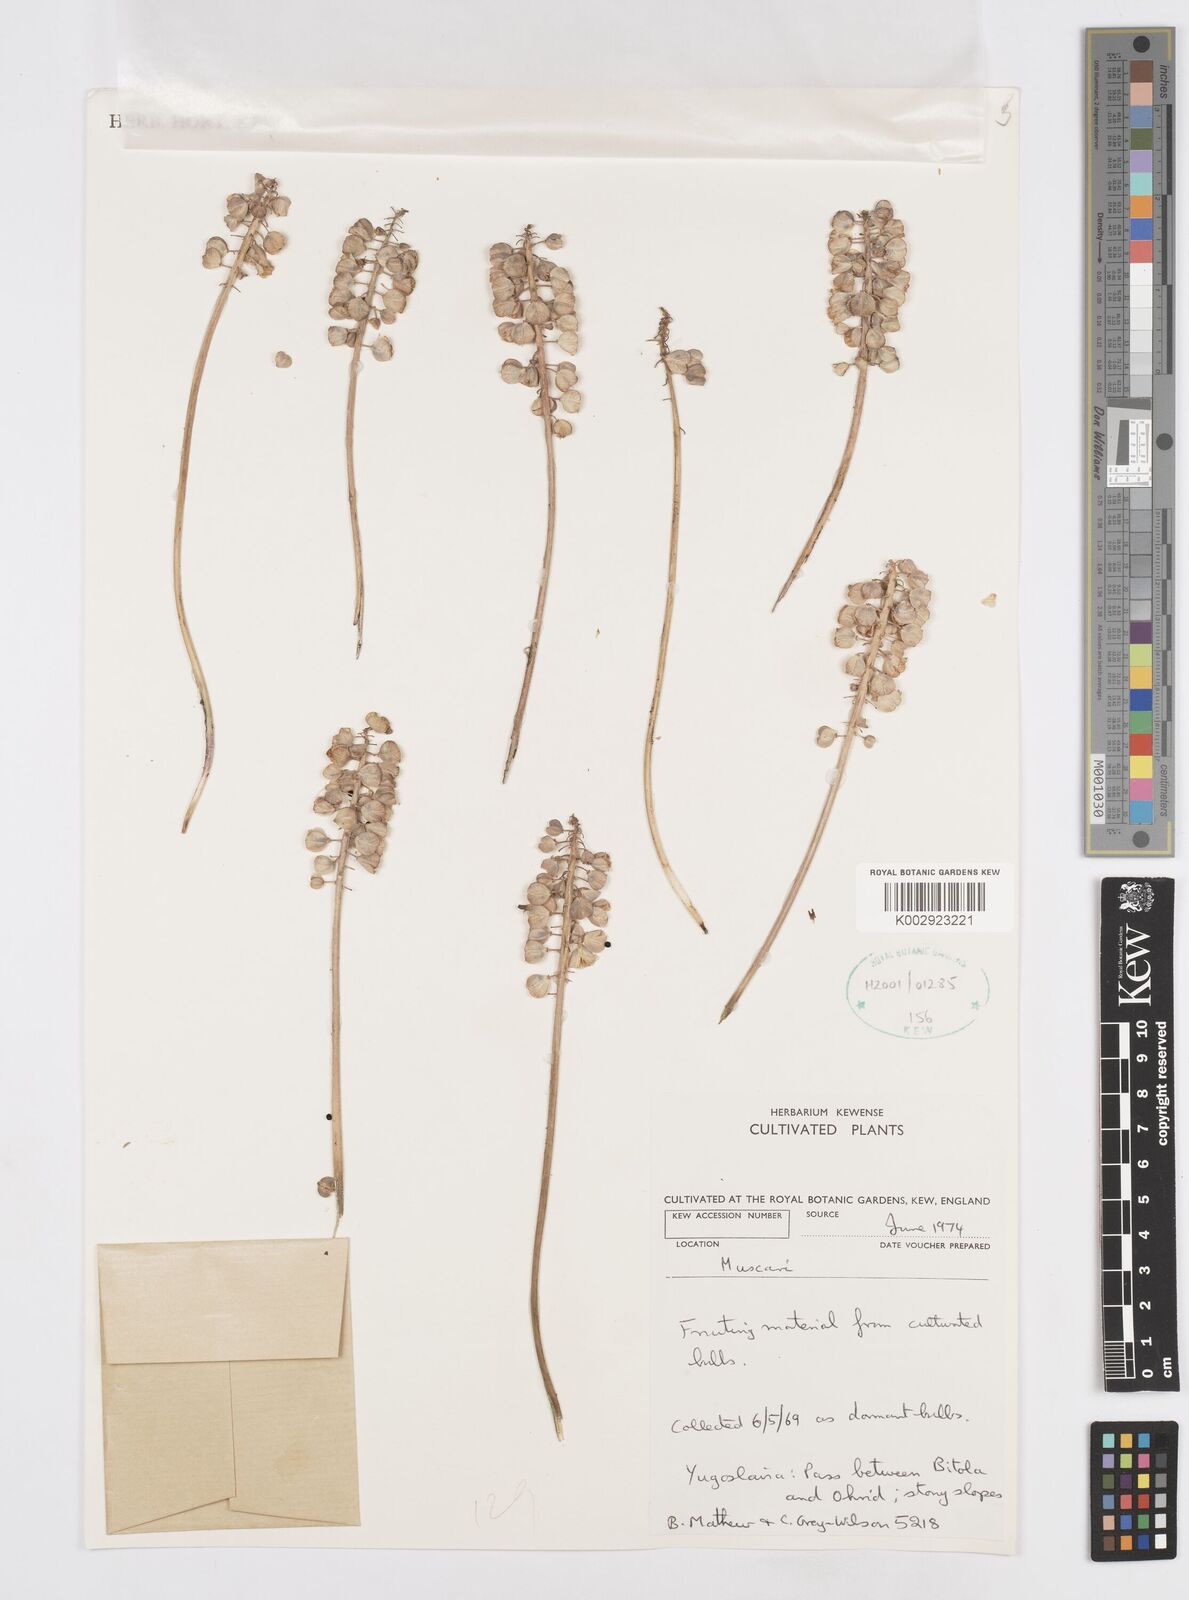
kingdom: Plantae
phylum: Tracheophyta
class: Liliopsida
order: Asparagales
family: Asparagaceae
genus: Muscari
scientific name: Muscari
